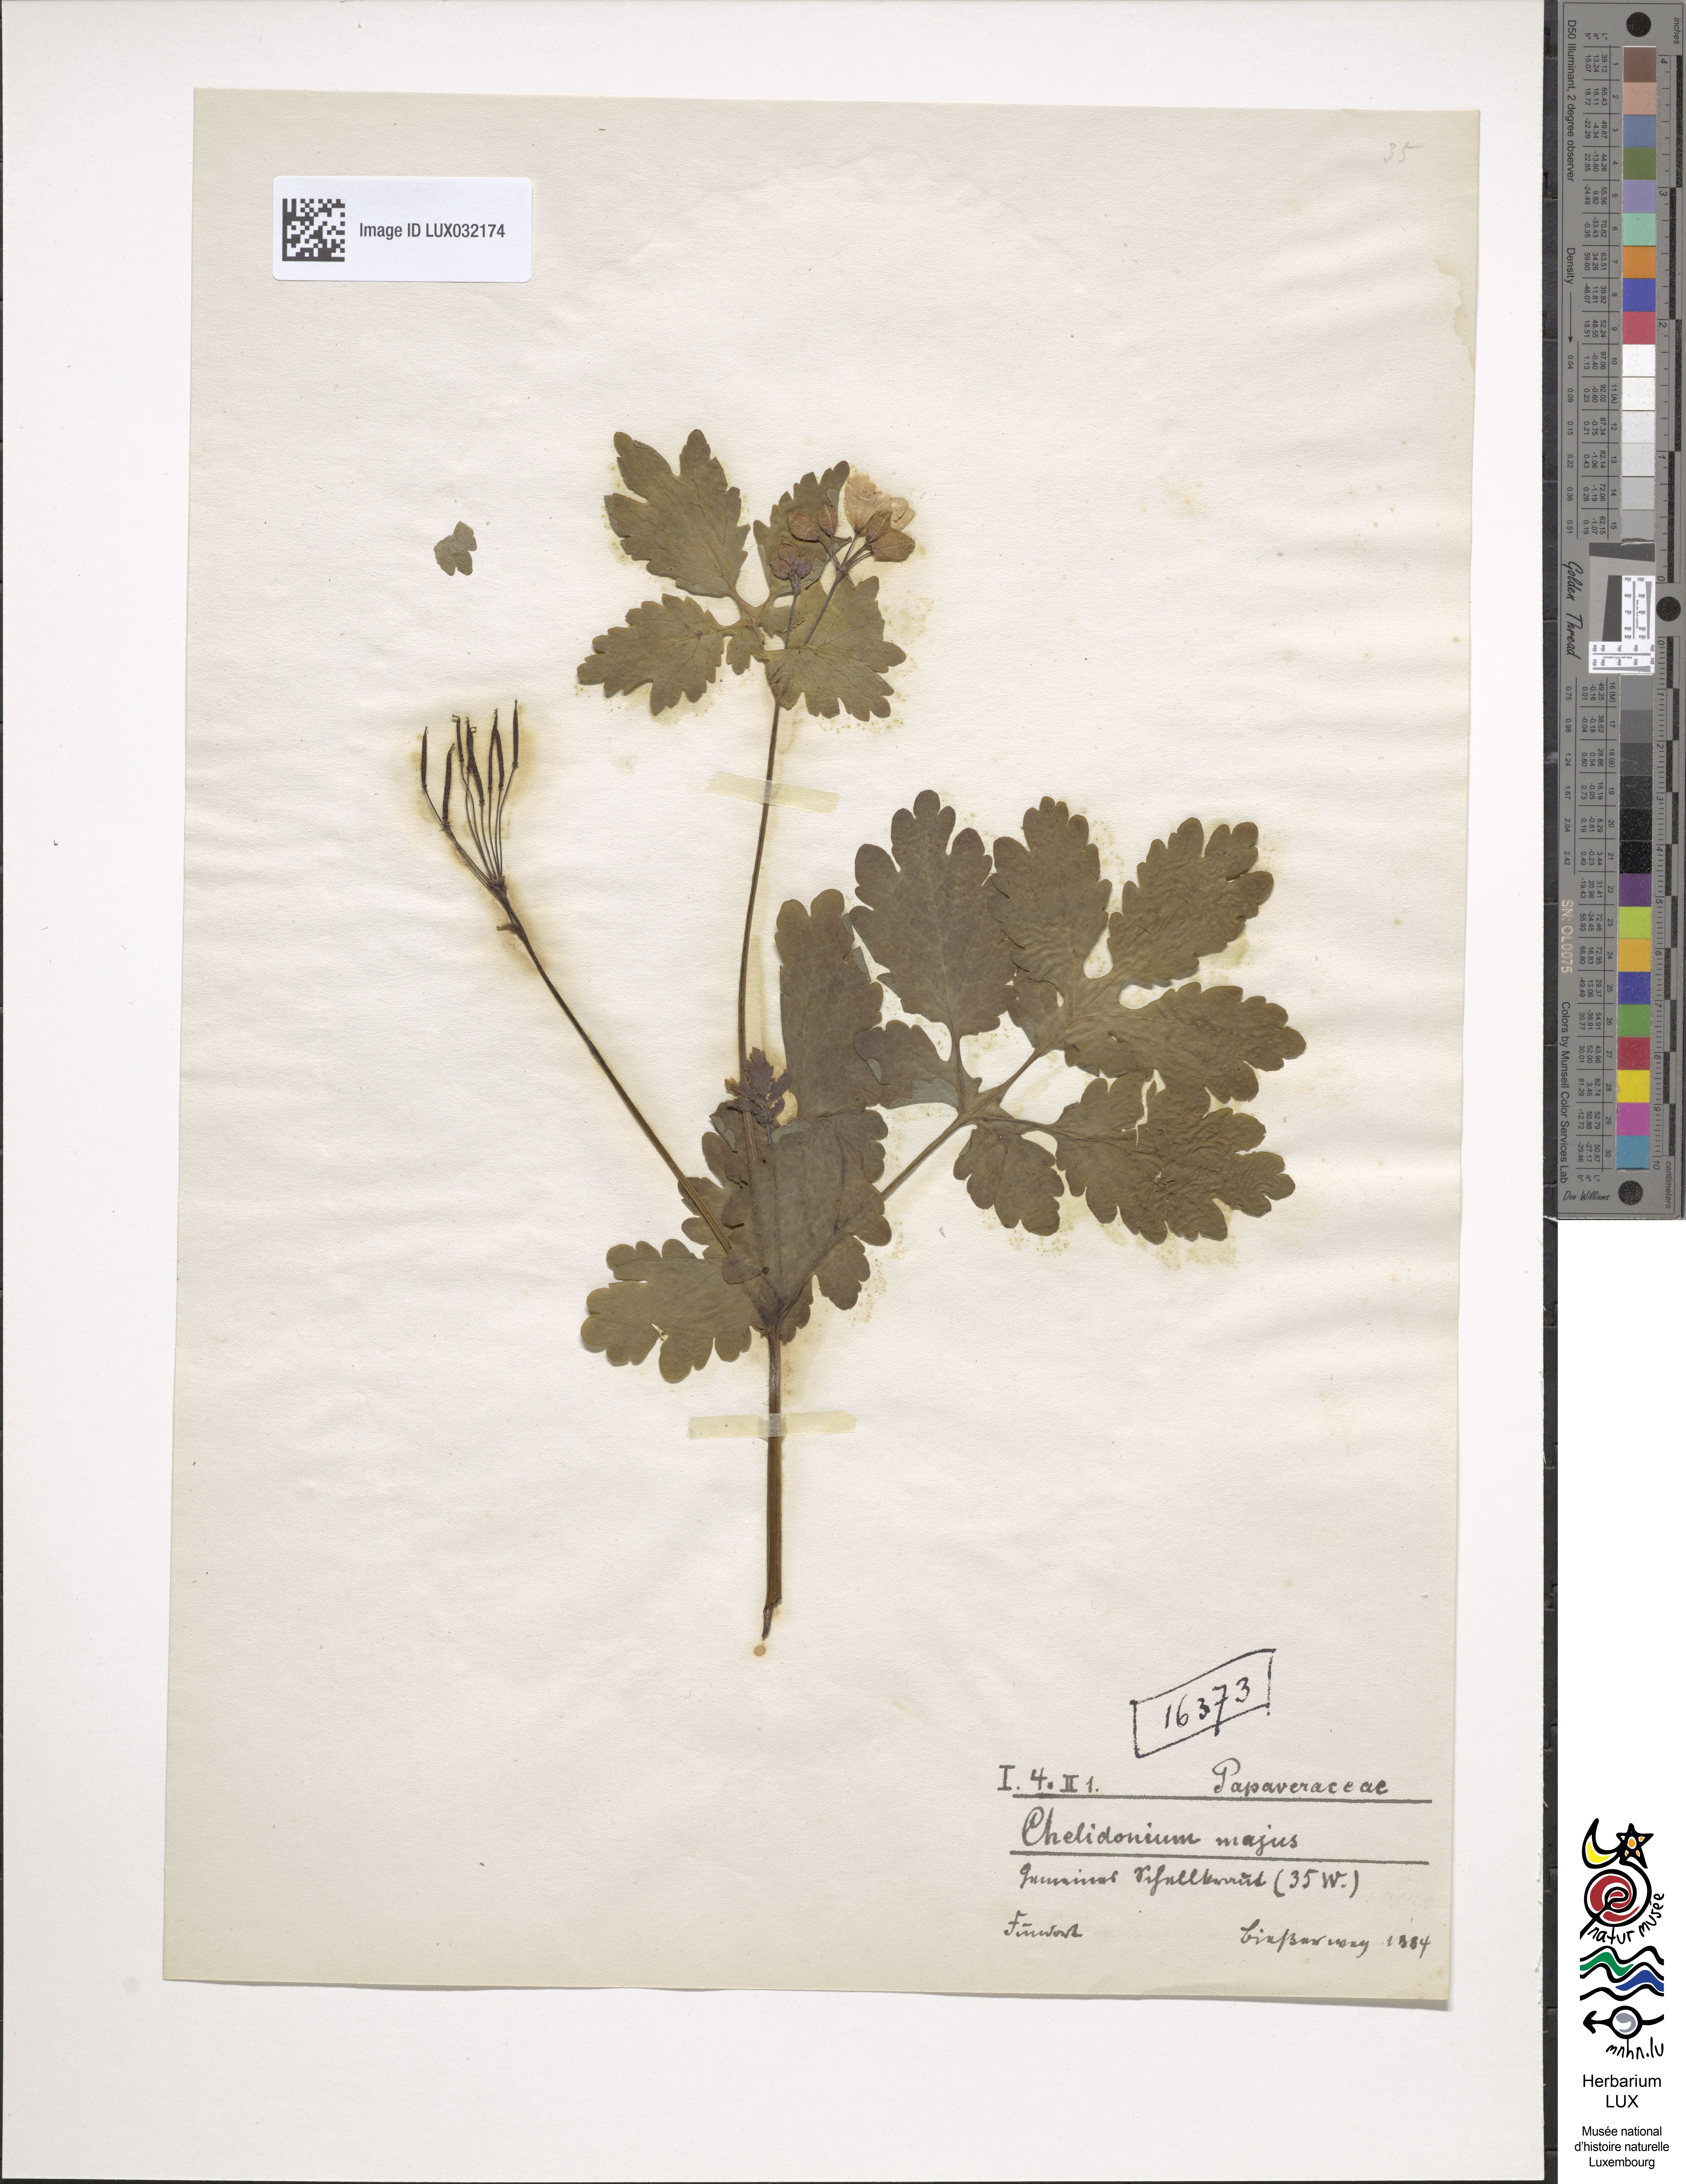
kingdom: Plantae
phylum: Tracheophyta
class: Magnoliopsida
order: Ranunculales
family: Papaveraceae
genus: Chelidonium
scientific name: Chelidonium majus
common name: Greater celandine
